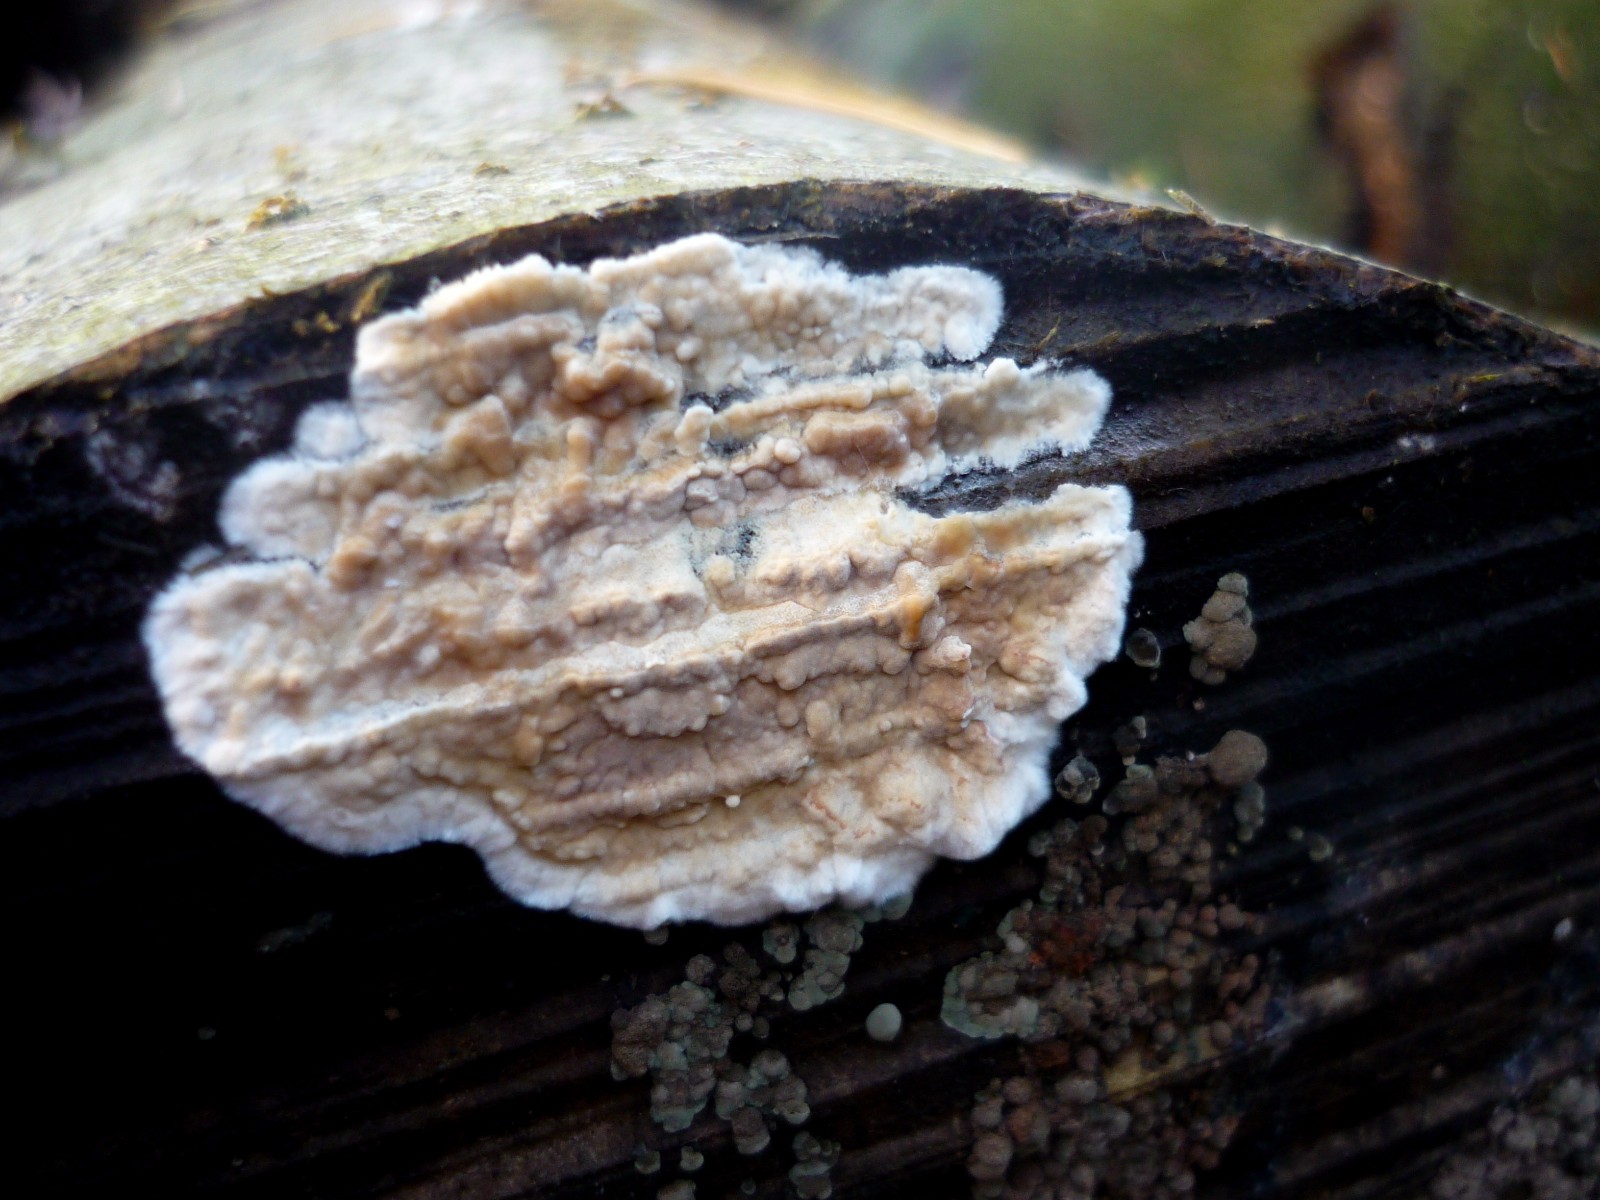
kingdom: Fungi
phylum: Basidiomycota
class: Agaricomycetes
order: Agaricales
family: Physalacriaceae
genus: Cylindrobasidium
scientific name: Cylindrobasidium evolvens
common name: sprækkehinde
